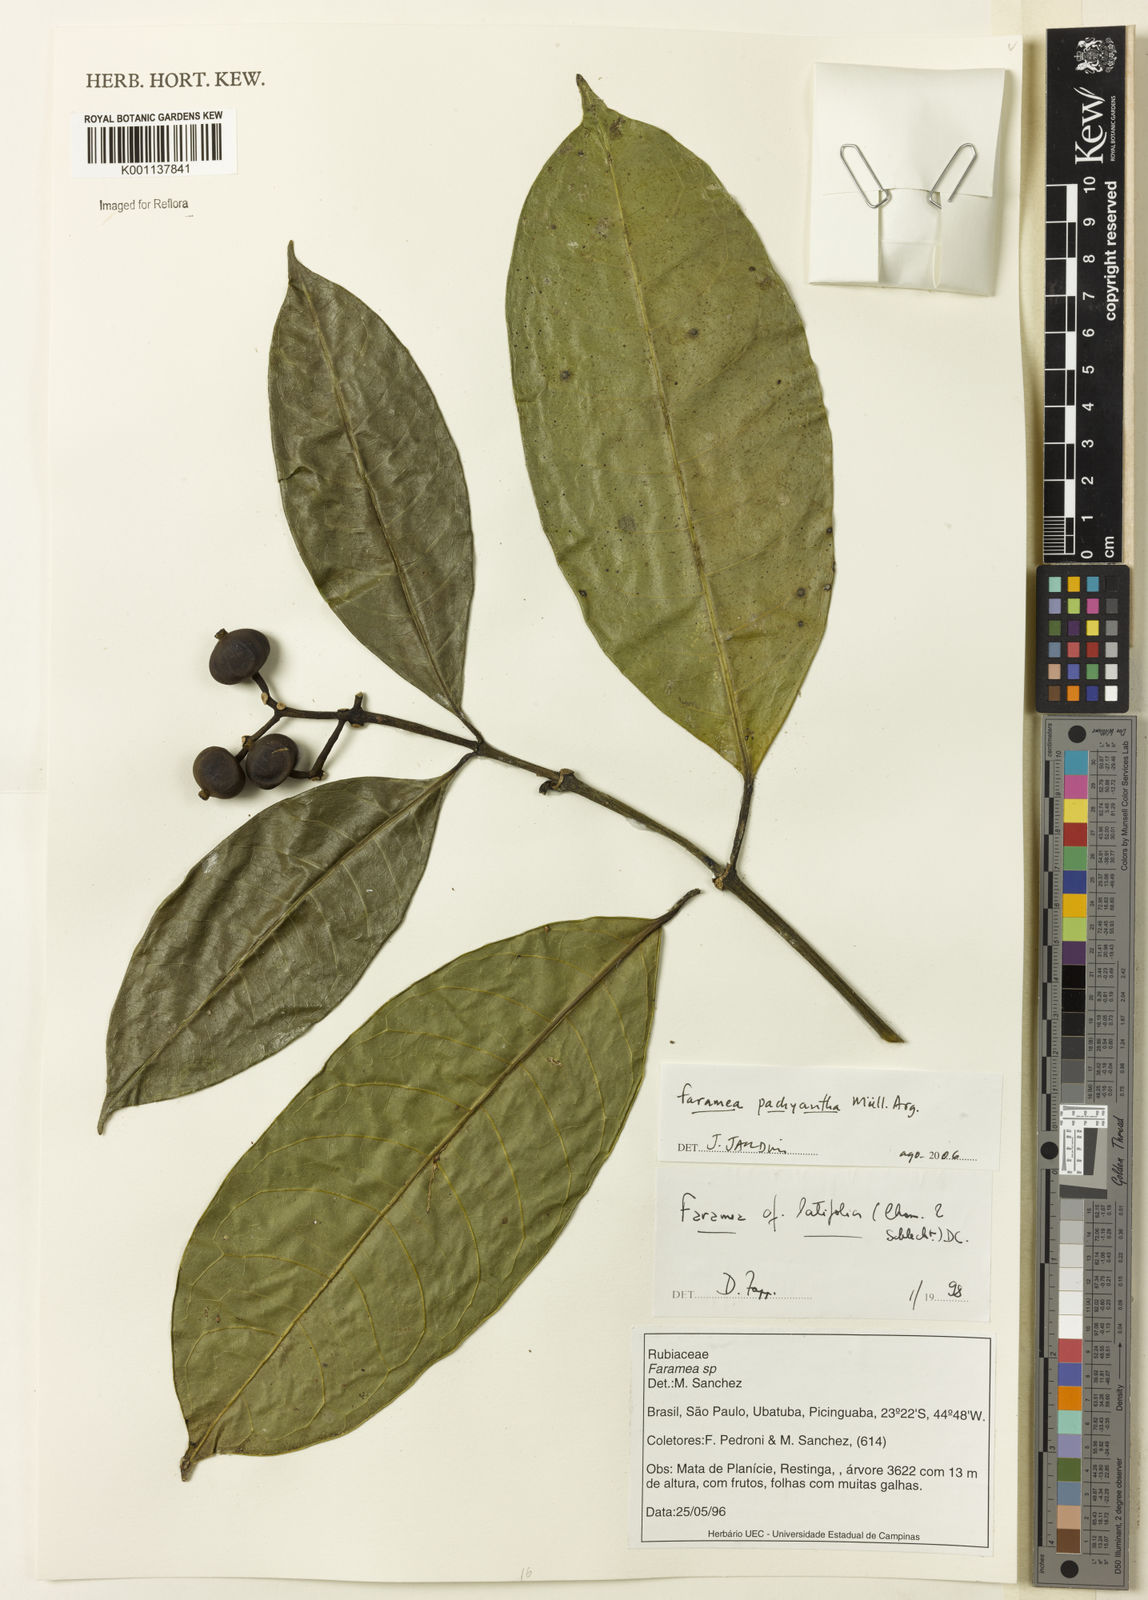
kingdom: Plantae
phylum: Tracheophyta
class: Magnoliopsida
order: Gentianales
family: Rubiaceae
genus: Faramea
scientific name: Faramea
